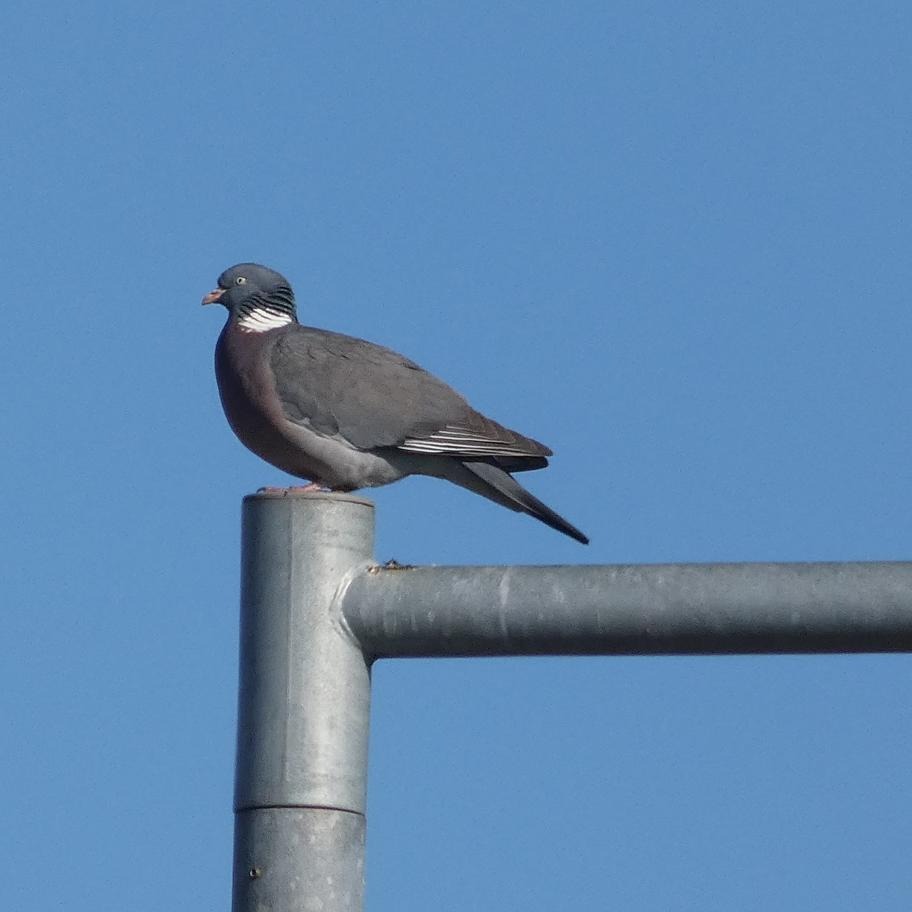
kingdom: Animalia
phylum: Chordata
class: Aves
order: Columbiformes
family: Columbidae
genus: Columba
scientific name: Columba palumbus
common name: Ringdue
